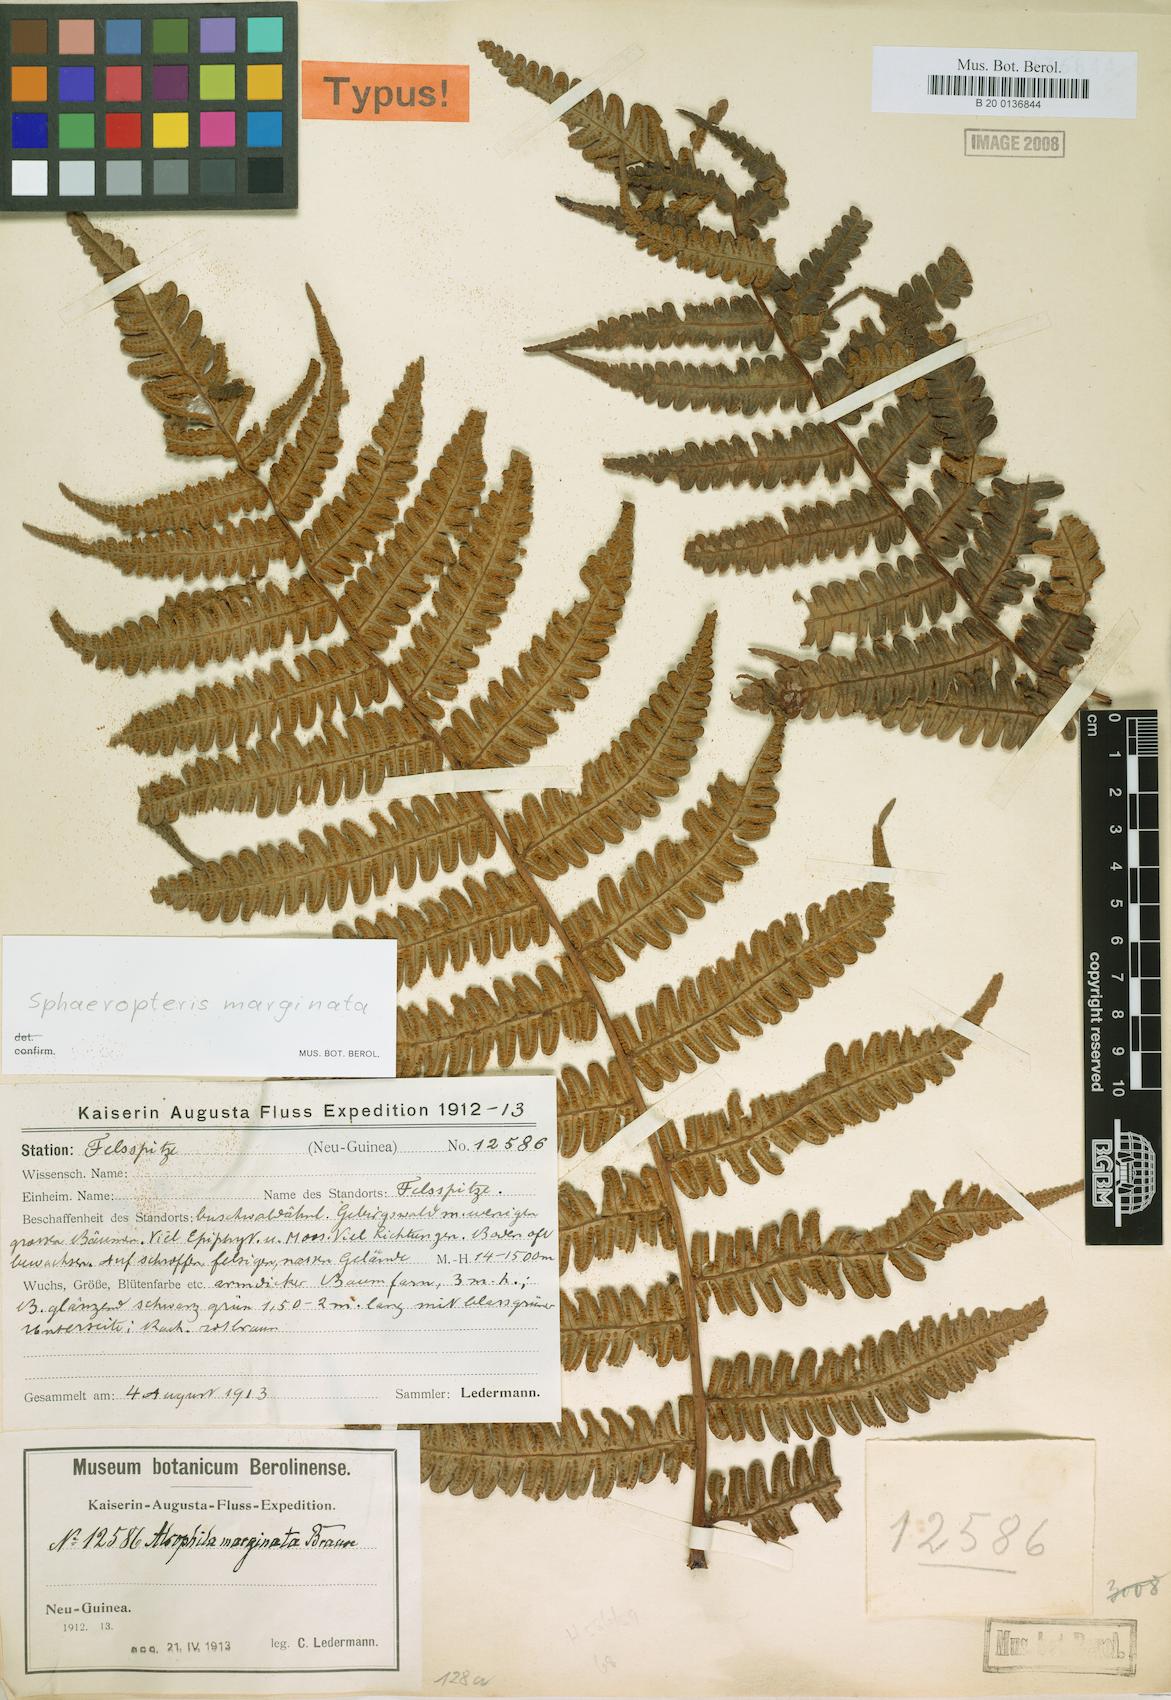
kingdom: Plantae
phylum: Tracheophyta
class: Polypodiopsida
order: Cyatheales
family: Cyatheaceae
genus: Sphaeropteris
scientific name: Sphaeropteris marginata
